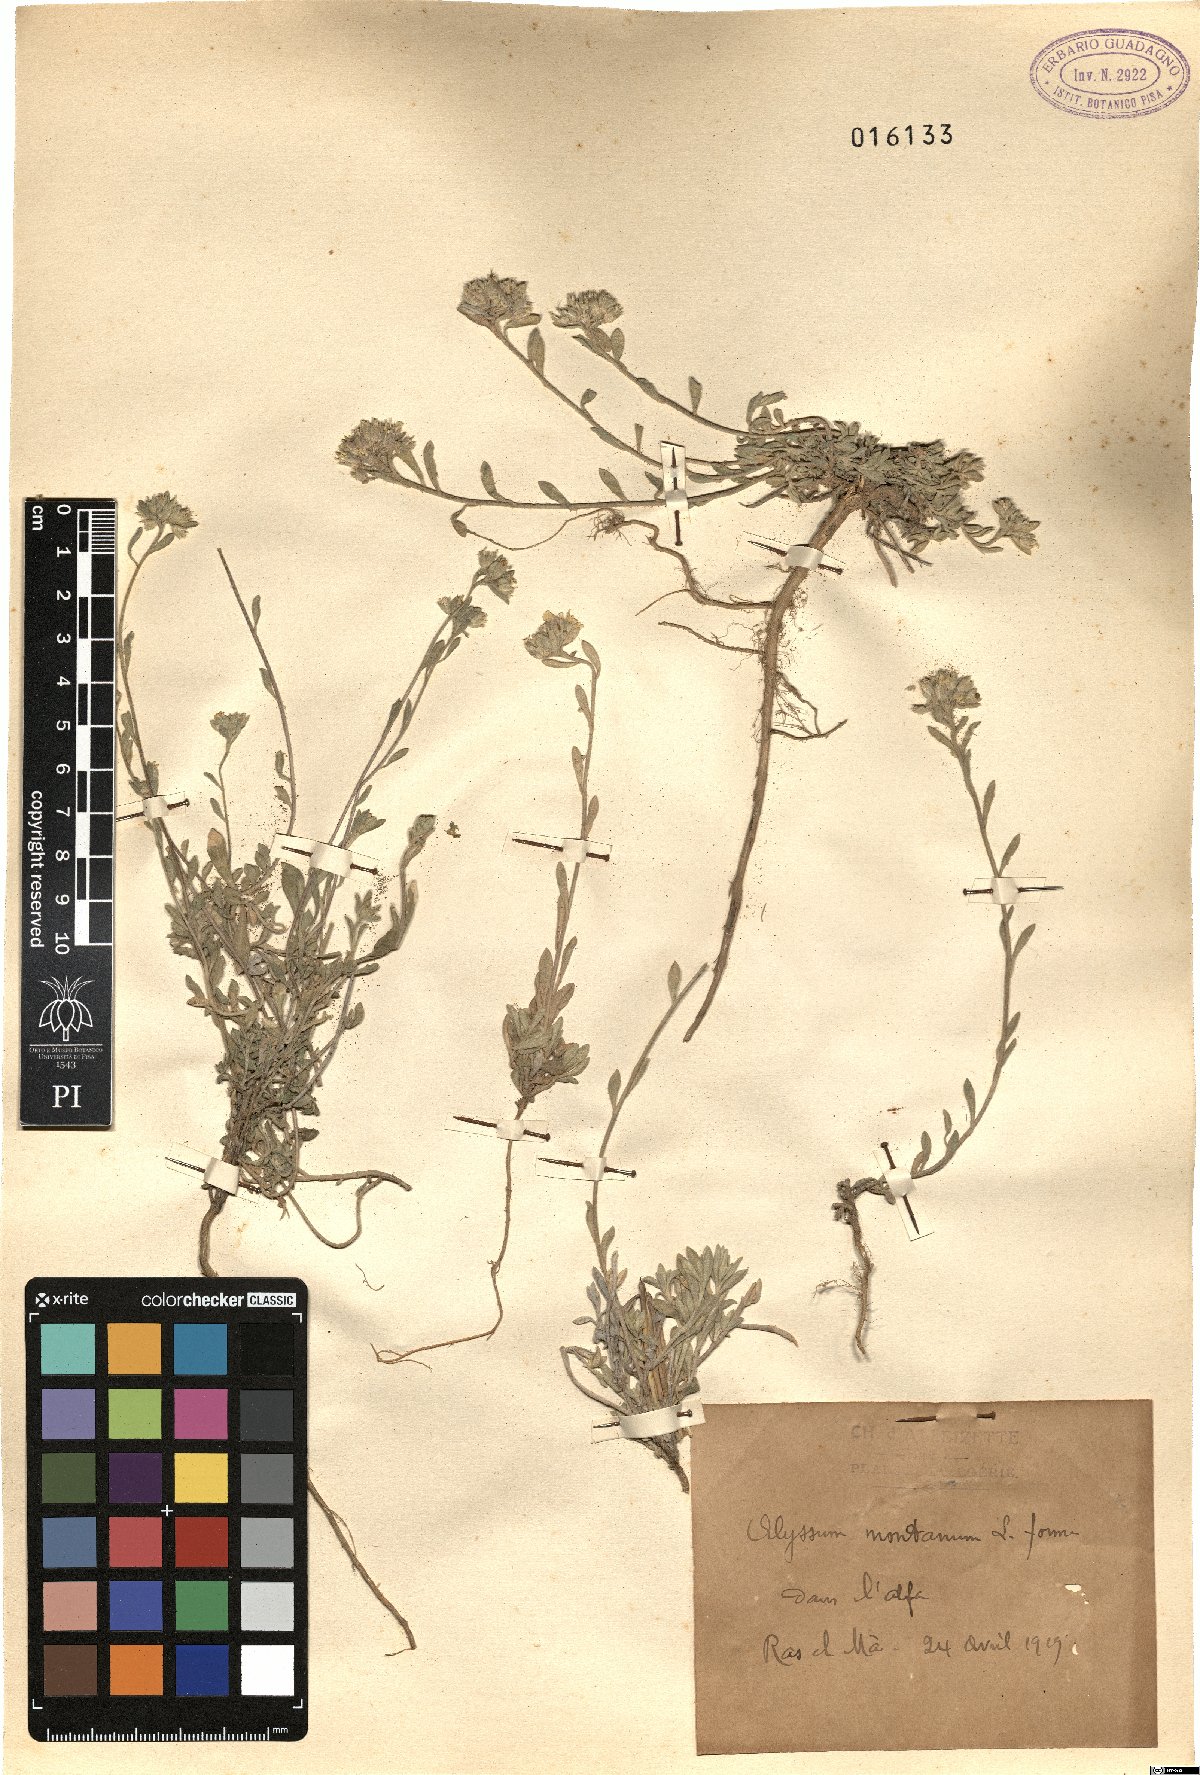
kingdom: Plantae
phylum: Tracheophyta
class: Magnoliopsida
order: Brassicales
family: Brassicaceae
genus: Alyssum
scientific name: Alyssum montanum
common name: Mountain alison
